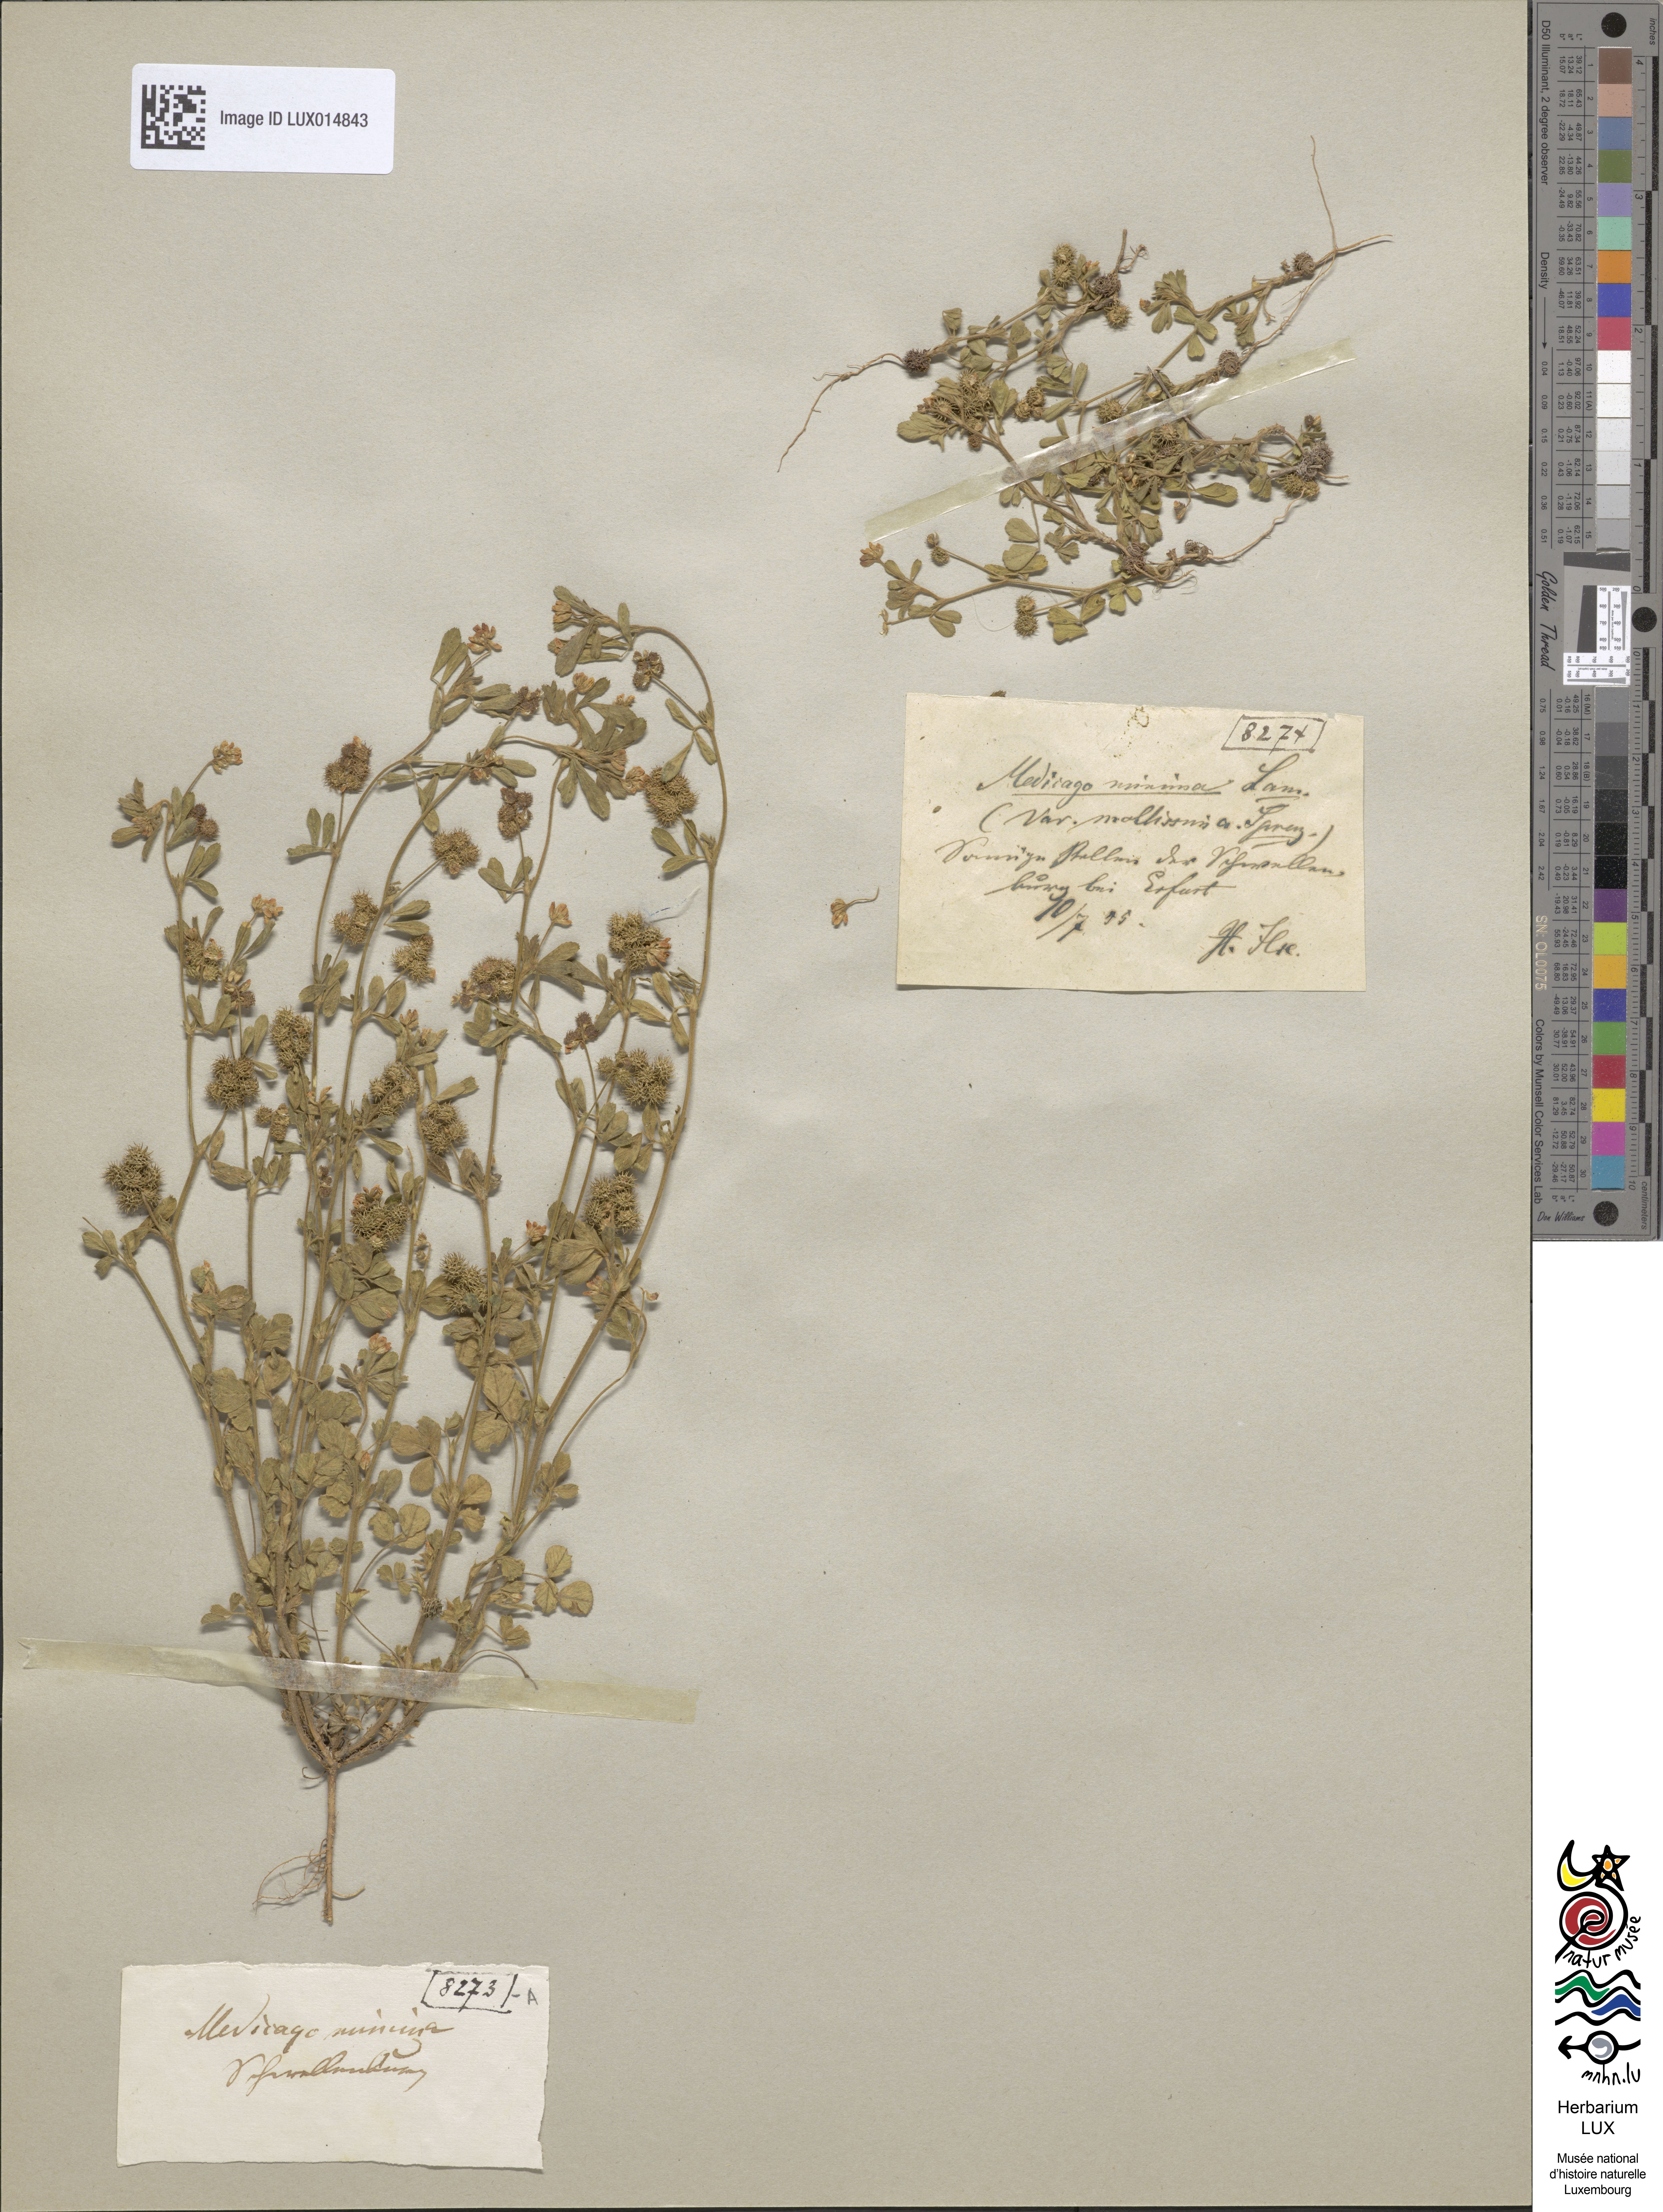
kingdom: Plantae
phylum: Tracheophyta
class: Magnoliopsida
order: Fabales
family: Fabaceae
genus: Medicago
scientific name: Medicago minima
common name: Little bur-clover
